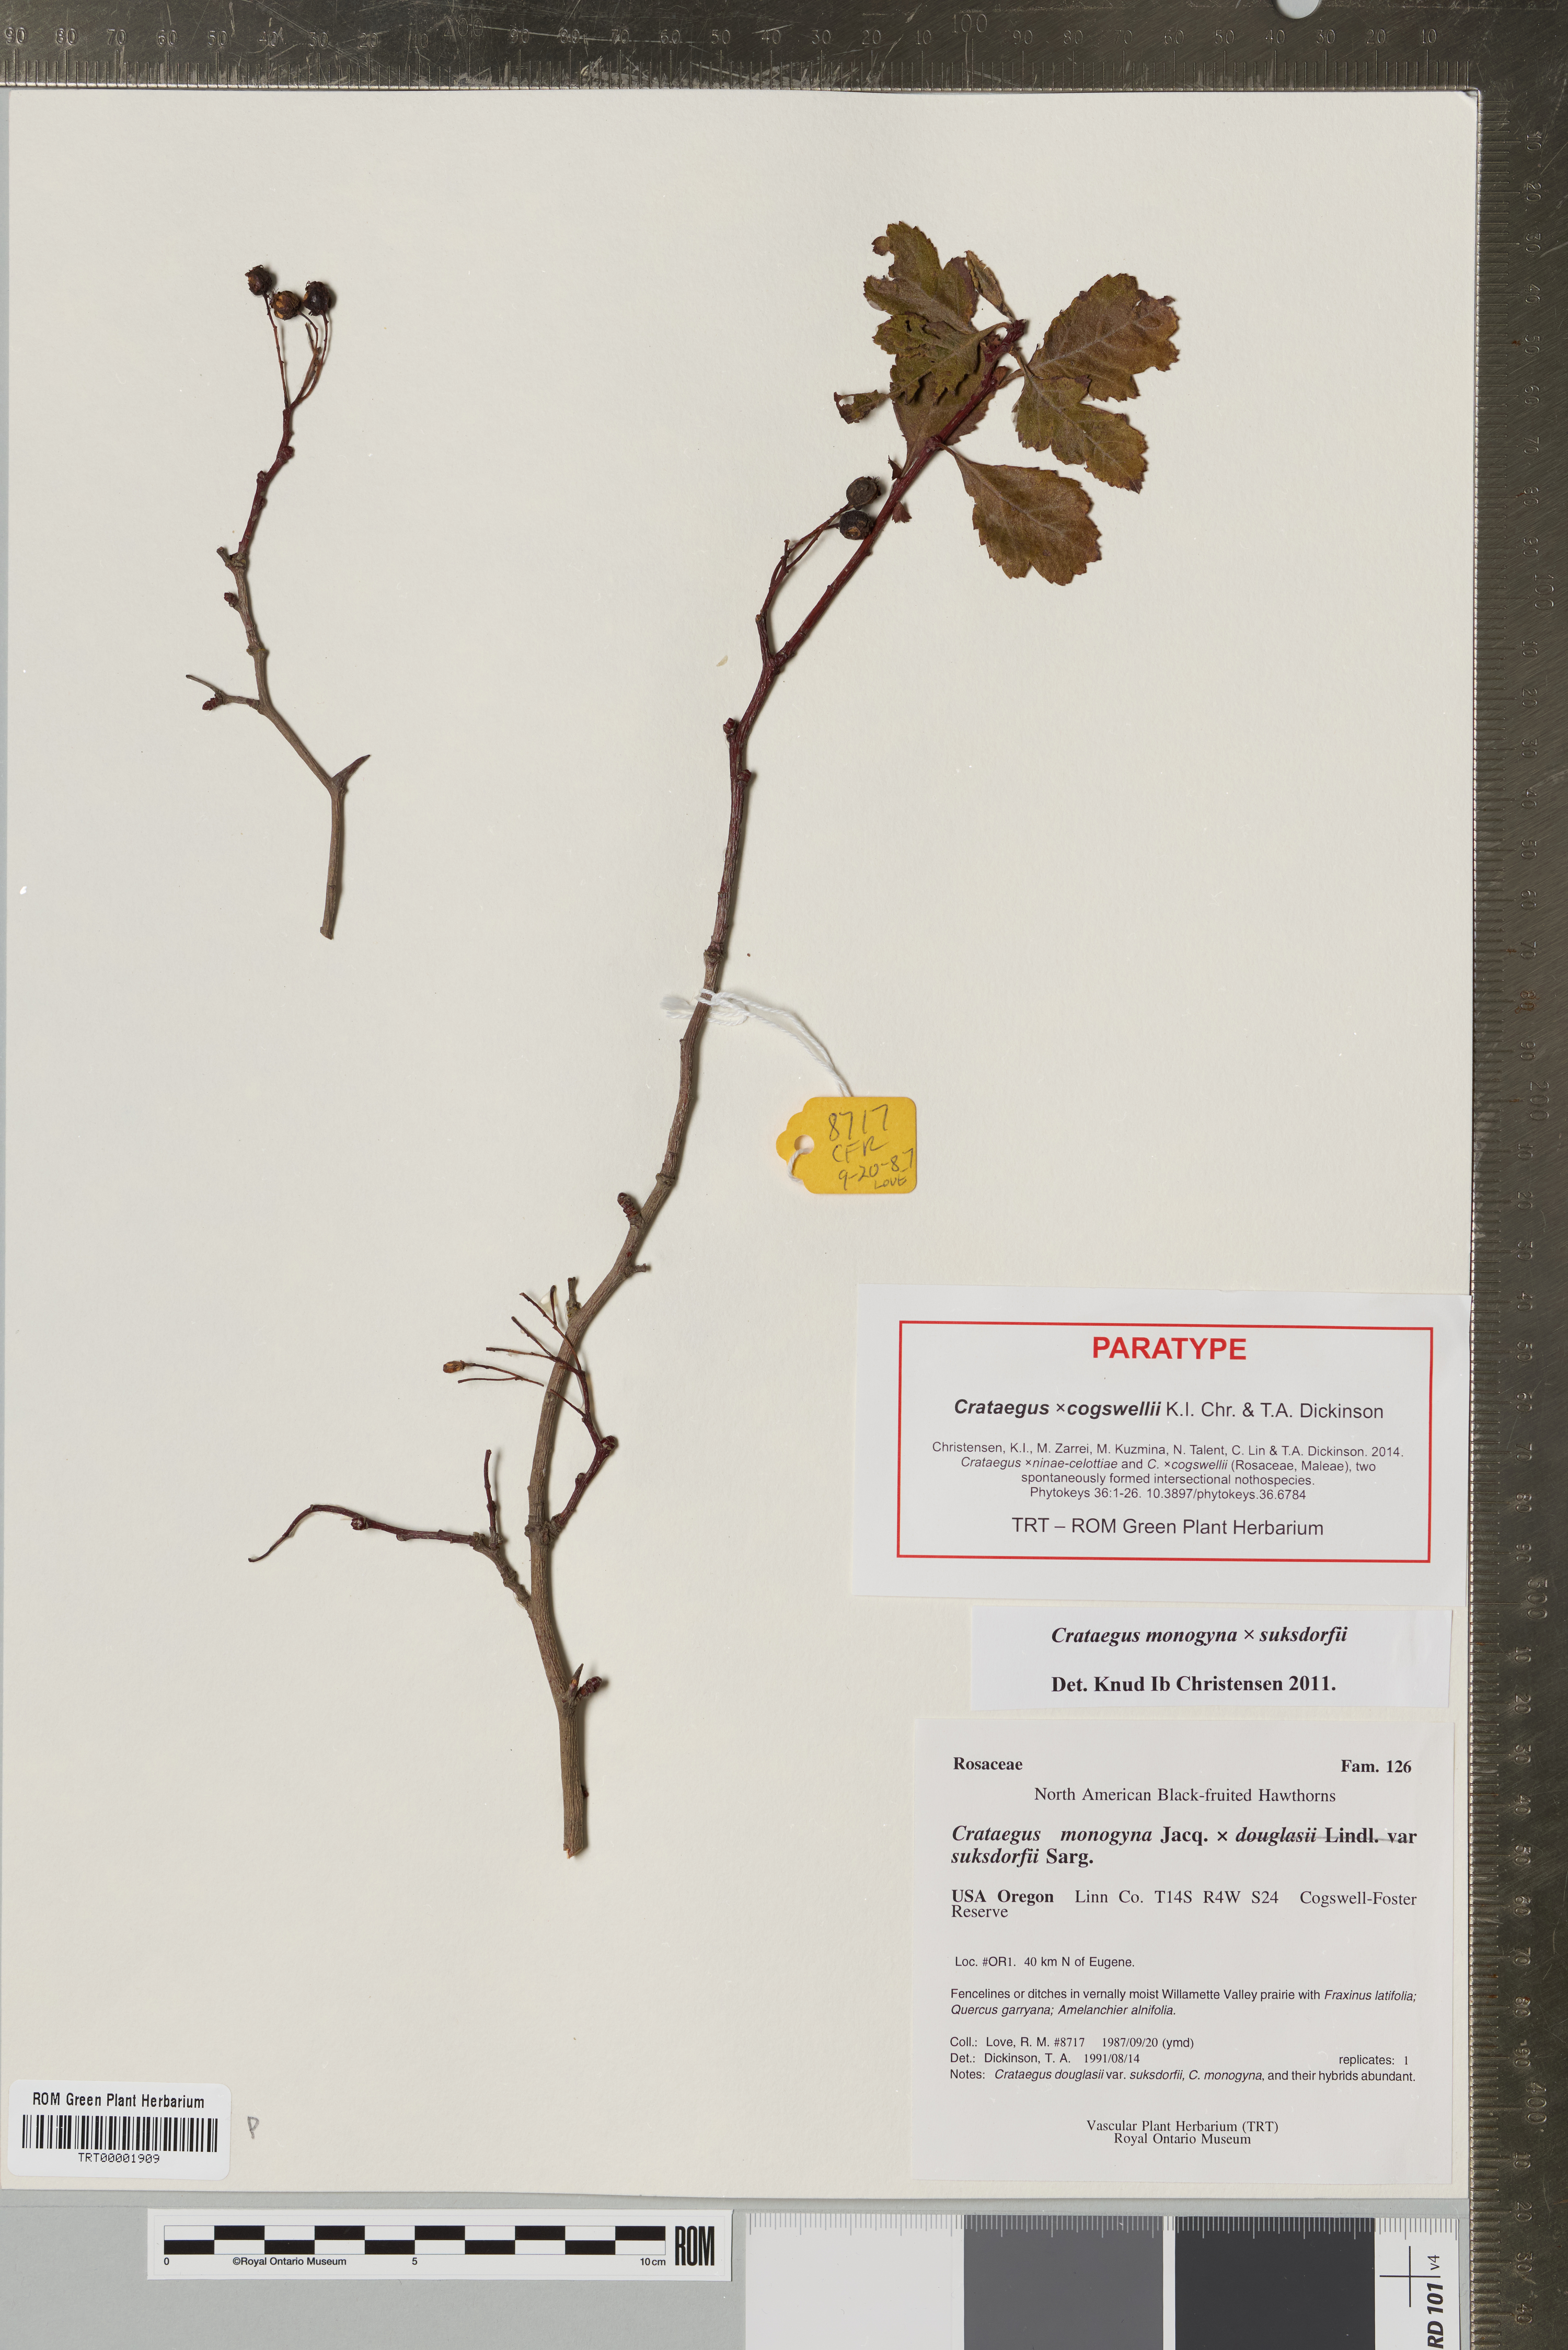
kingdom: Plantae
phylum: Tracheophyta
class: Magnoliopsida
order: Rosales
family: Rosaceae
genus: Crataegus
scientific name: Crataegus
